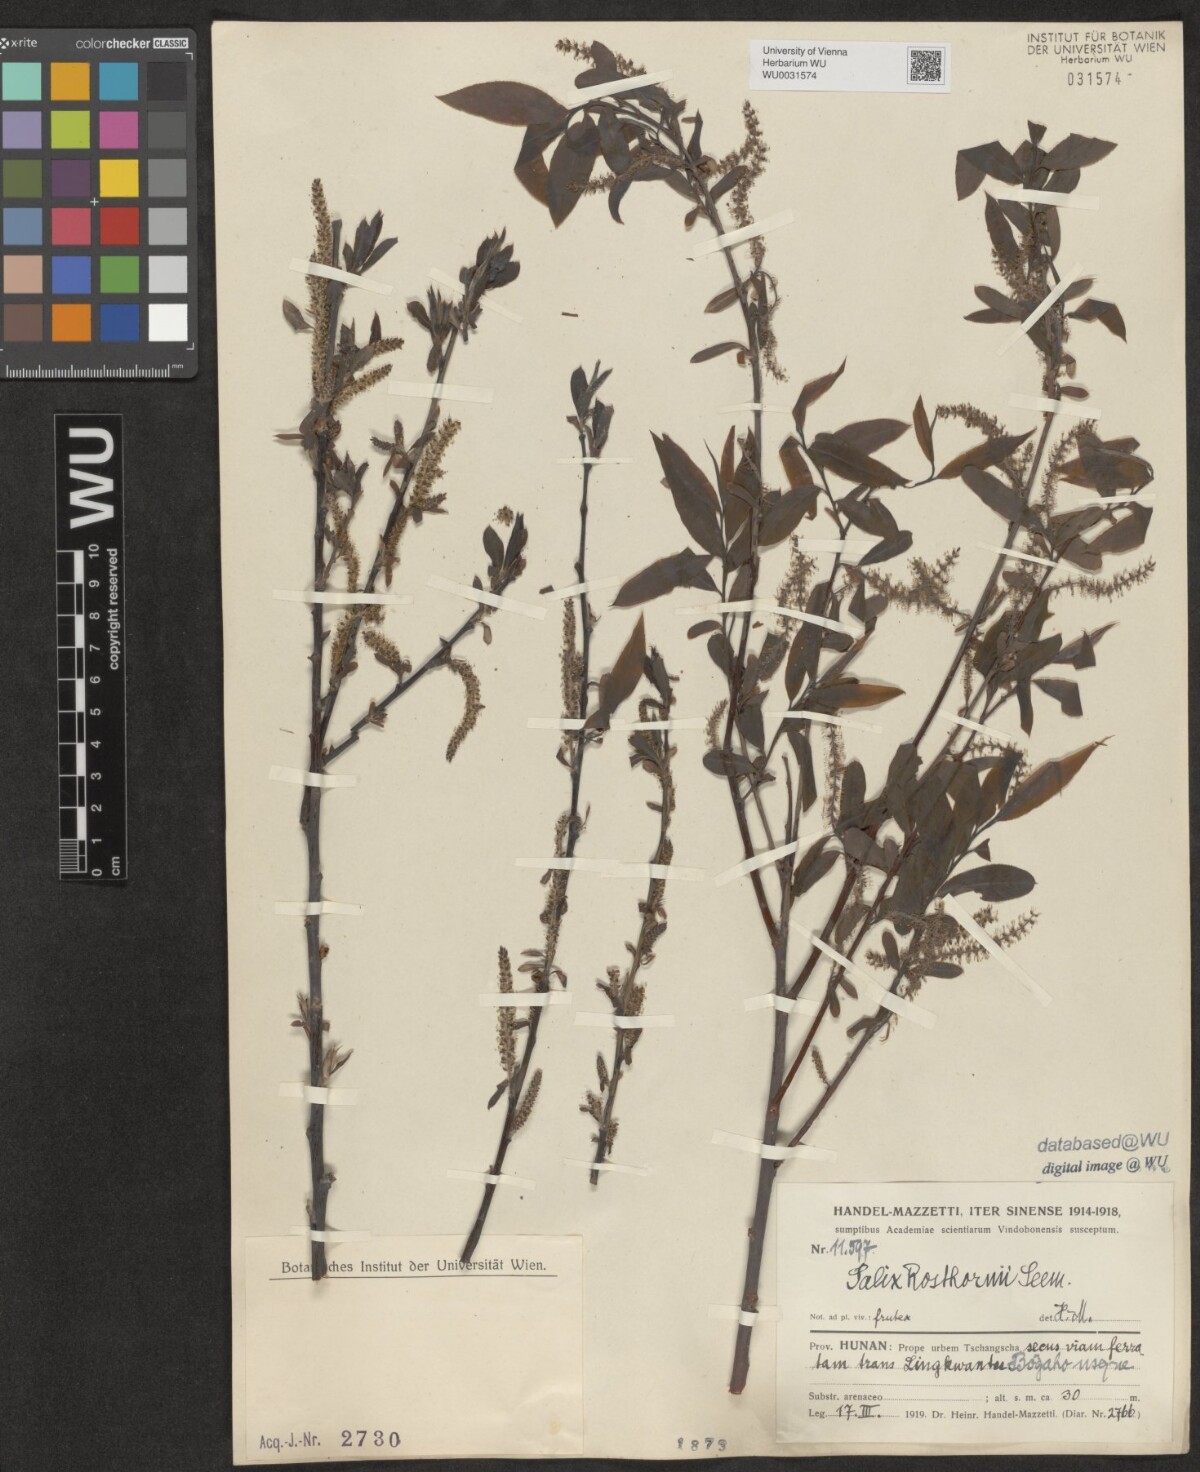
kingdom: Plantae
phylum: Tracheophyta
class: Magnoliopsida
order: Malpighiales
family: Salicaceae
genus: Salix
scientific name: Salix rosthornii
